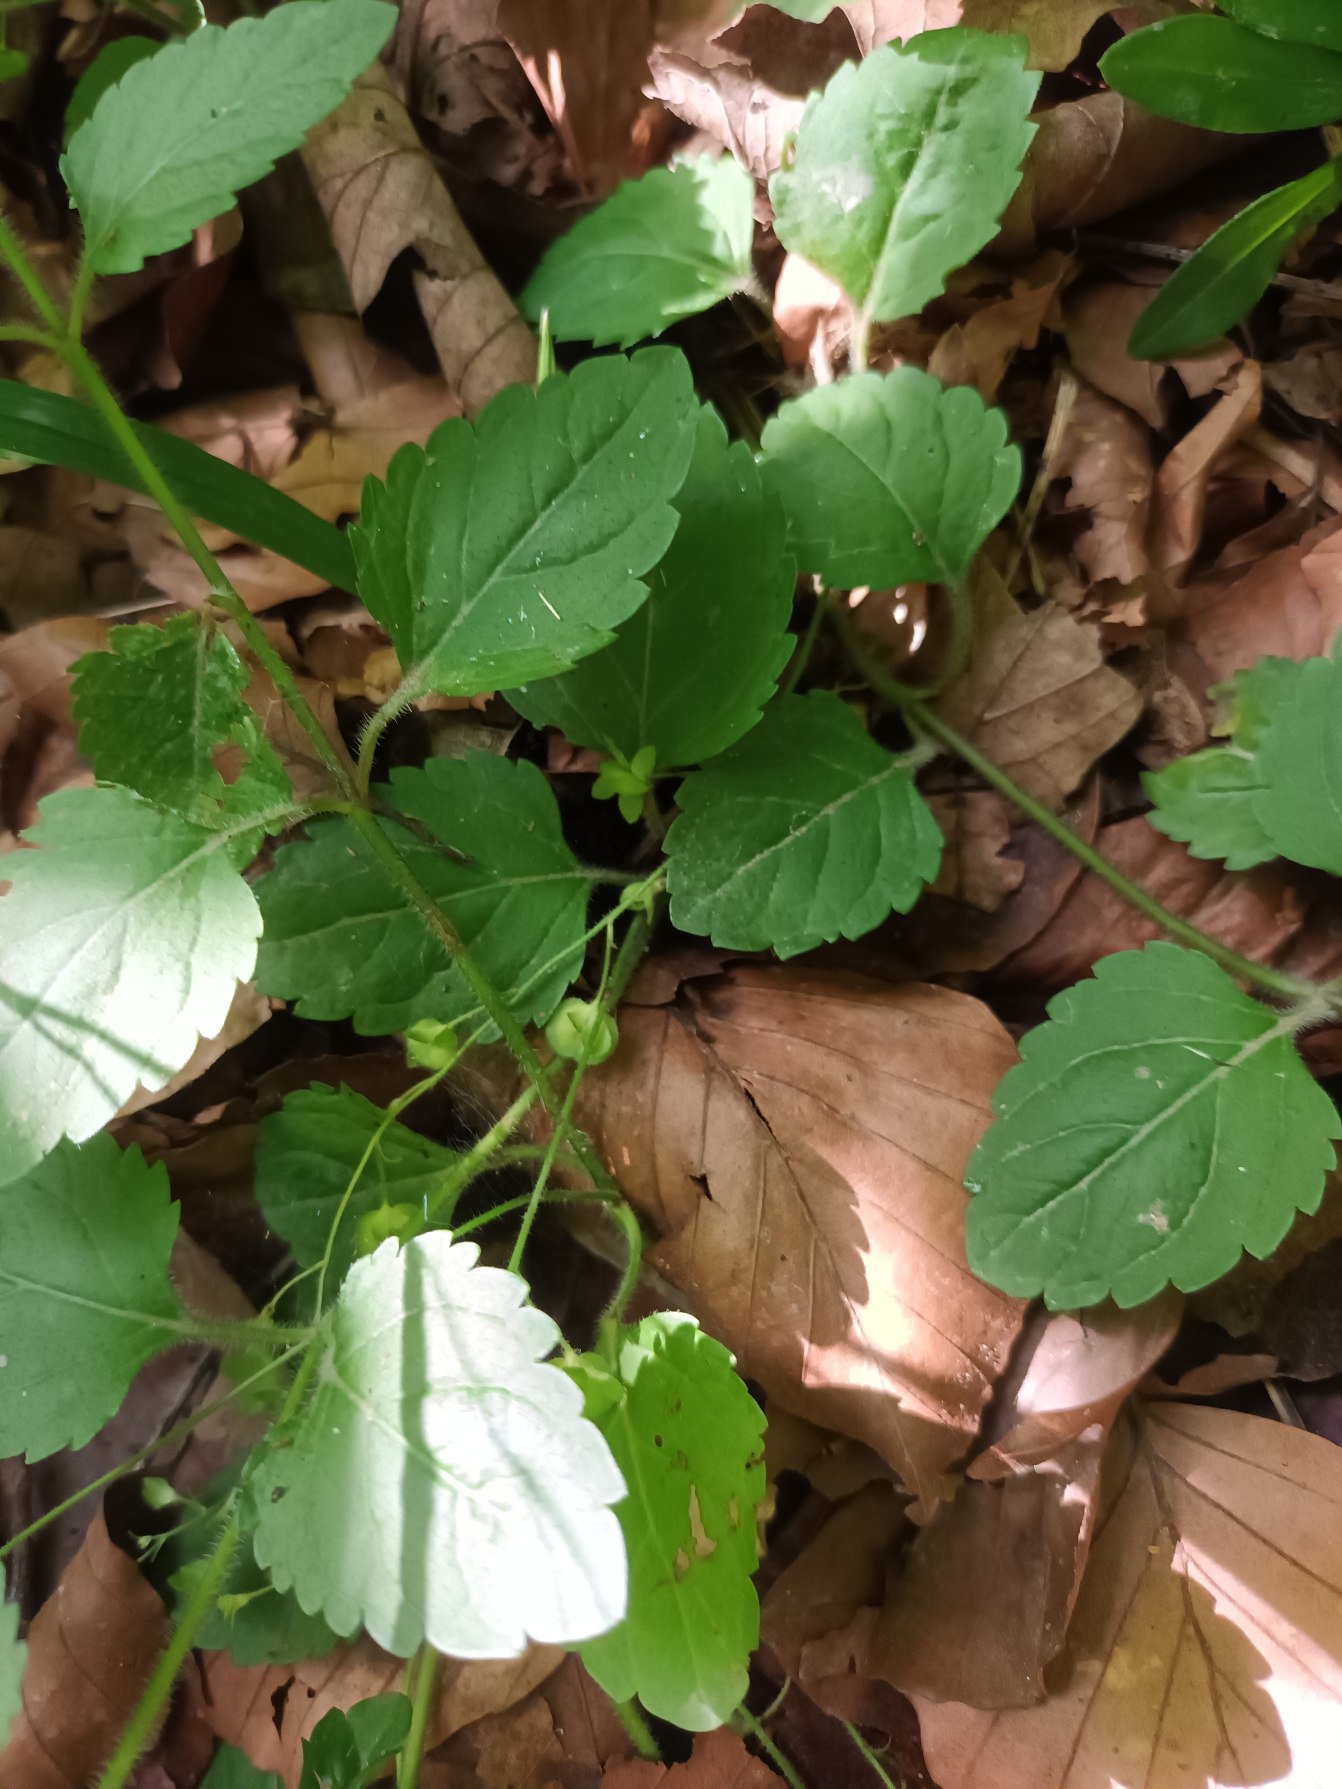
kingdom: Plantae
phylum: Tracheophyta
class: Magnoliopsida
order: Lamiales
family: Plantaginaceae
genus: Veronica
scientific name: Veronica montana
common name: Bjerg-ærenpris
